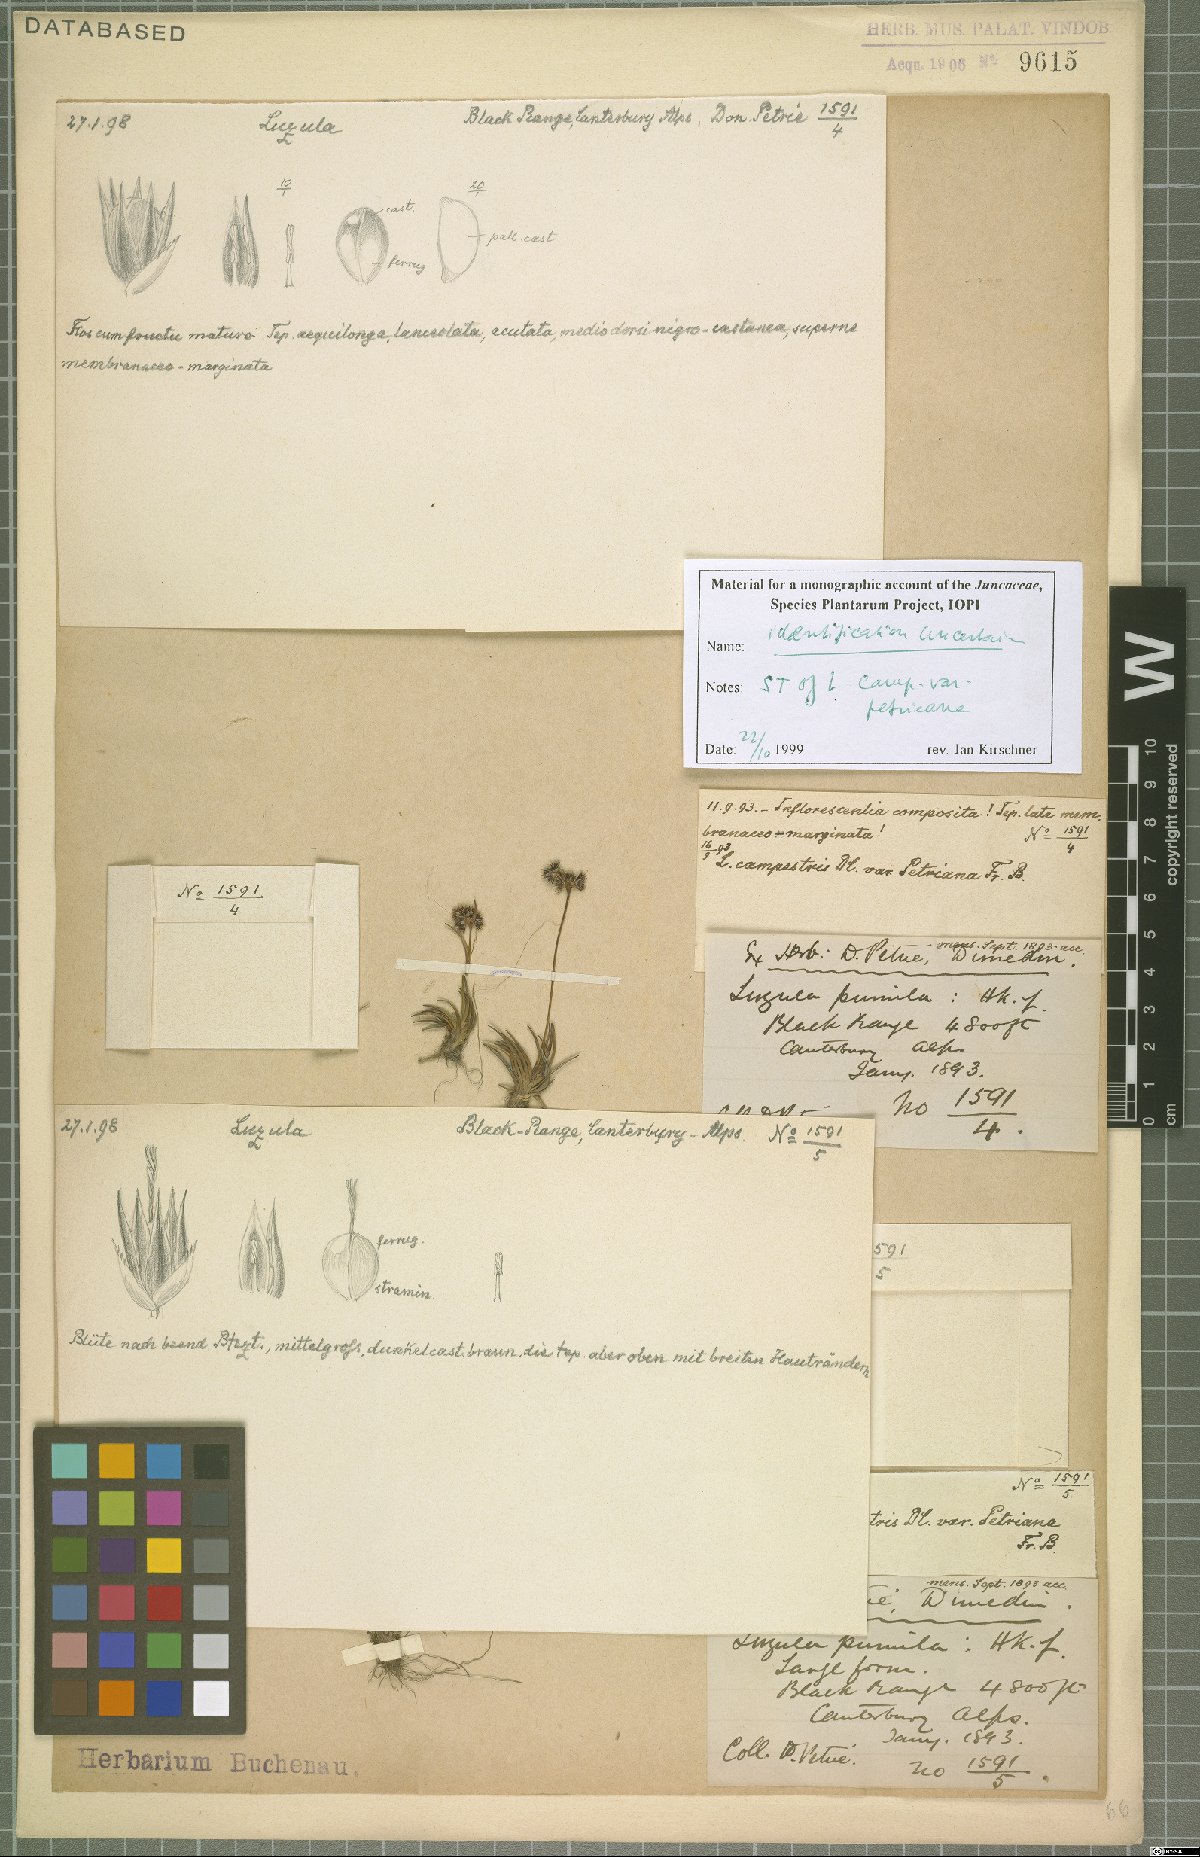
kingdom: Plantae
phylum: Tracheophyta
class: Liliopsida
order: Poales
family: Juncaceae
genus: Luzula
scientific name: Luzula crinita
